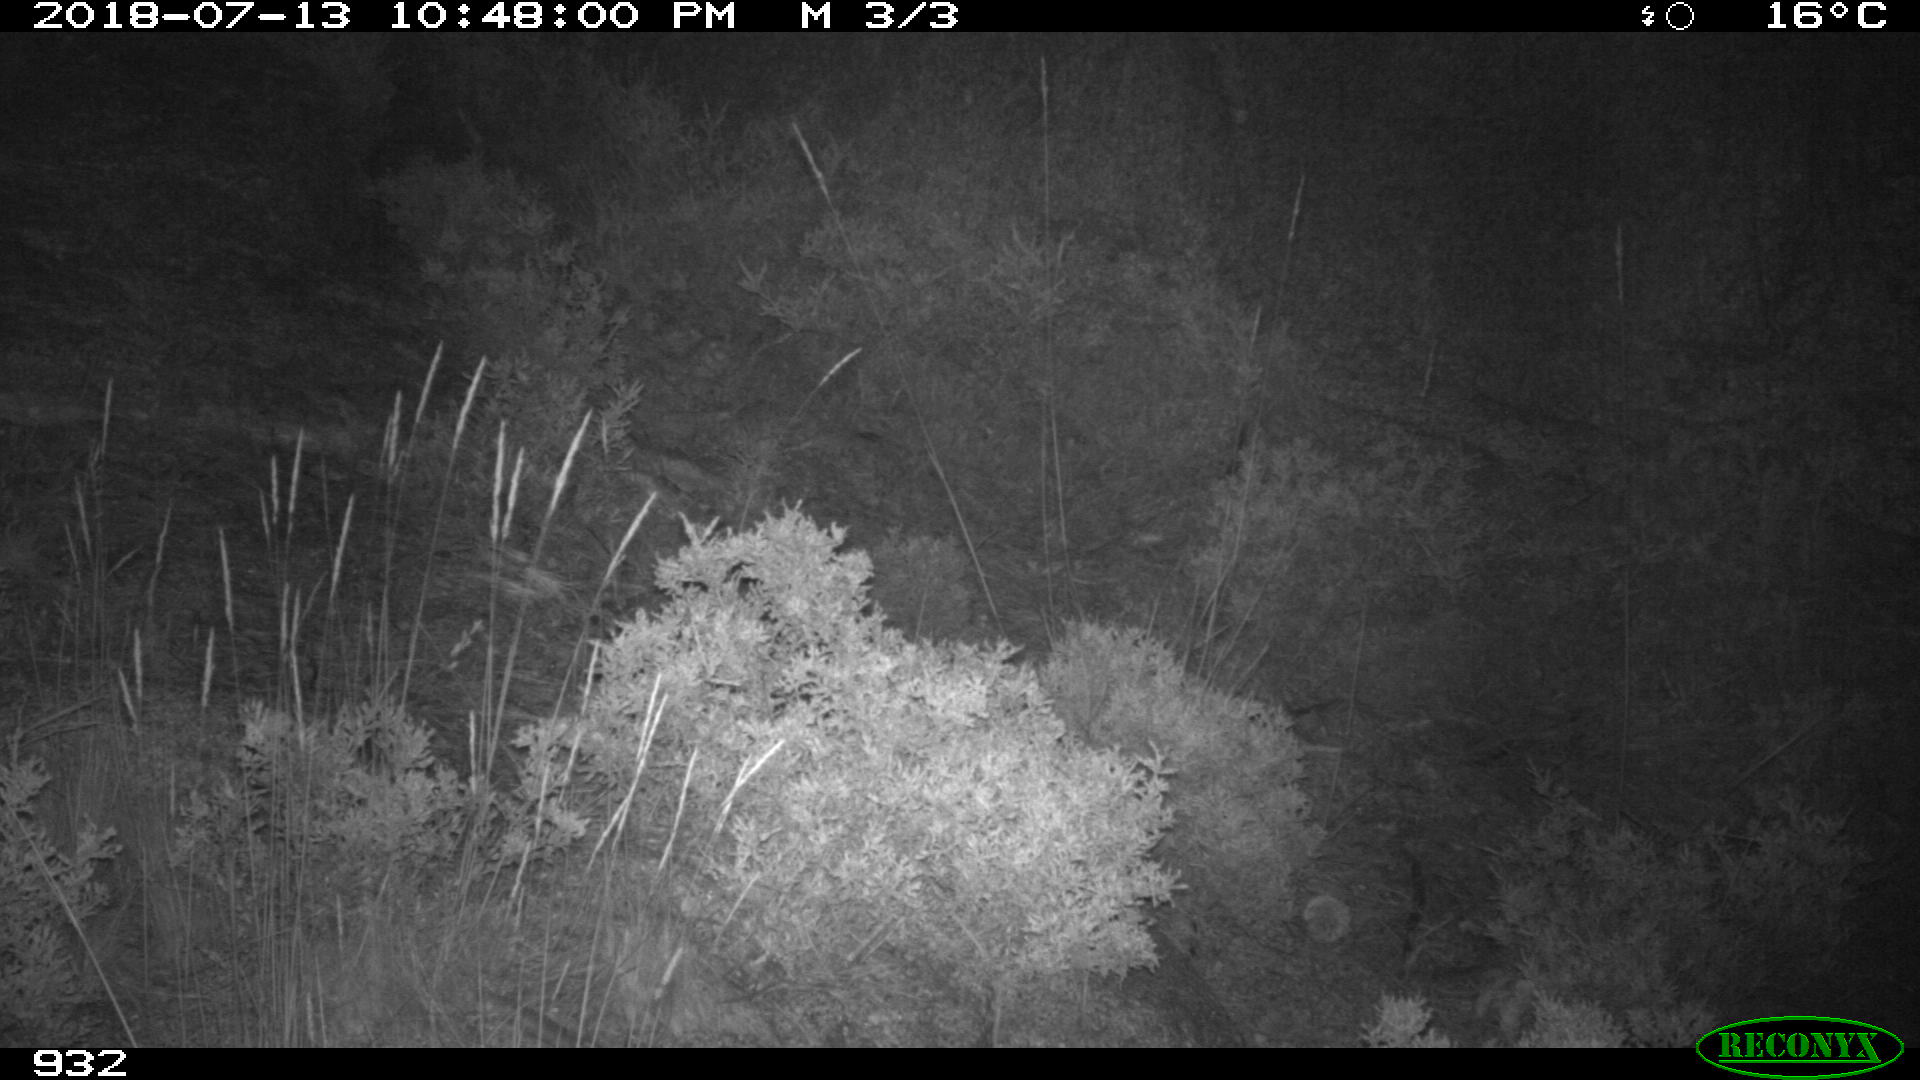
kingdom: Animalia
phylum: Chordata
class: Mammalia
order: Artiodactyla
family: Suidae
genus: Sus
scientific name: Sus scrofa
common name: Wild boar
